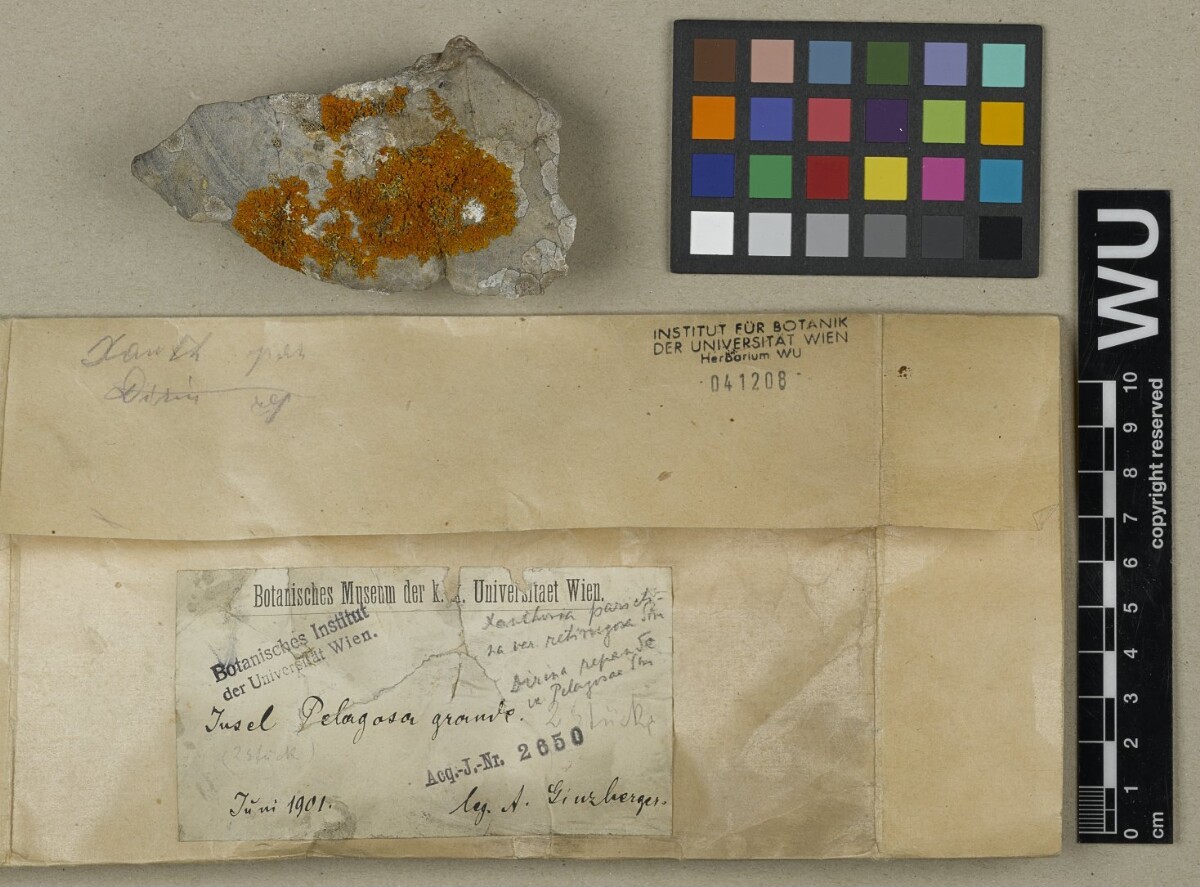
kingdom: Fungi
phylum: Ascomycota
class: Lecanoromycetes
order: Teloschistales
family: Teloschistaceae
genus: Xanthoria
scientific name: Xanthoria parietina
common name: Common orange lichen
